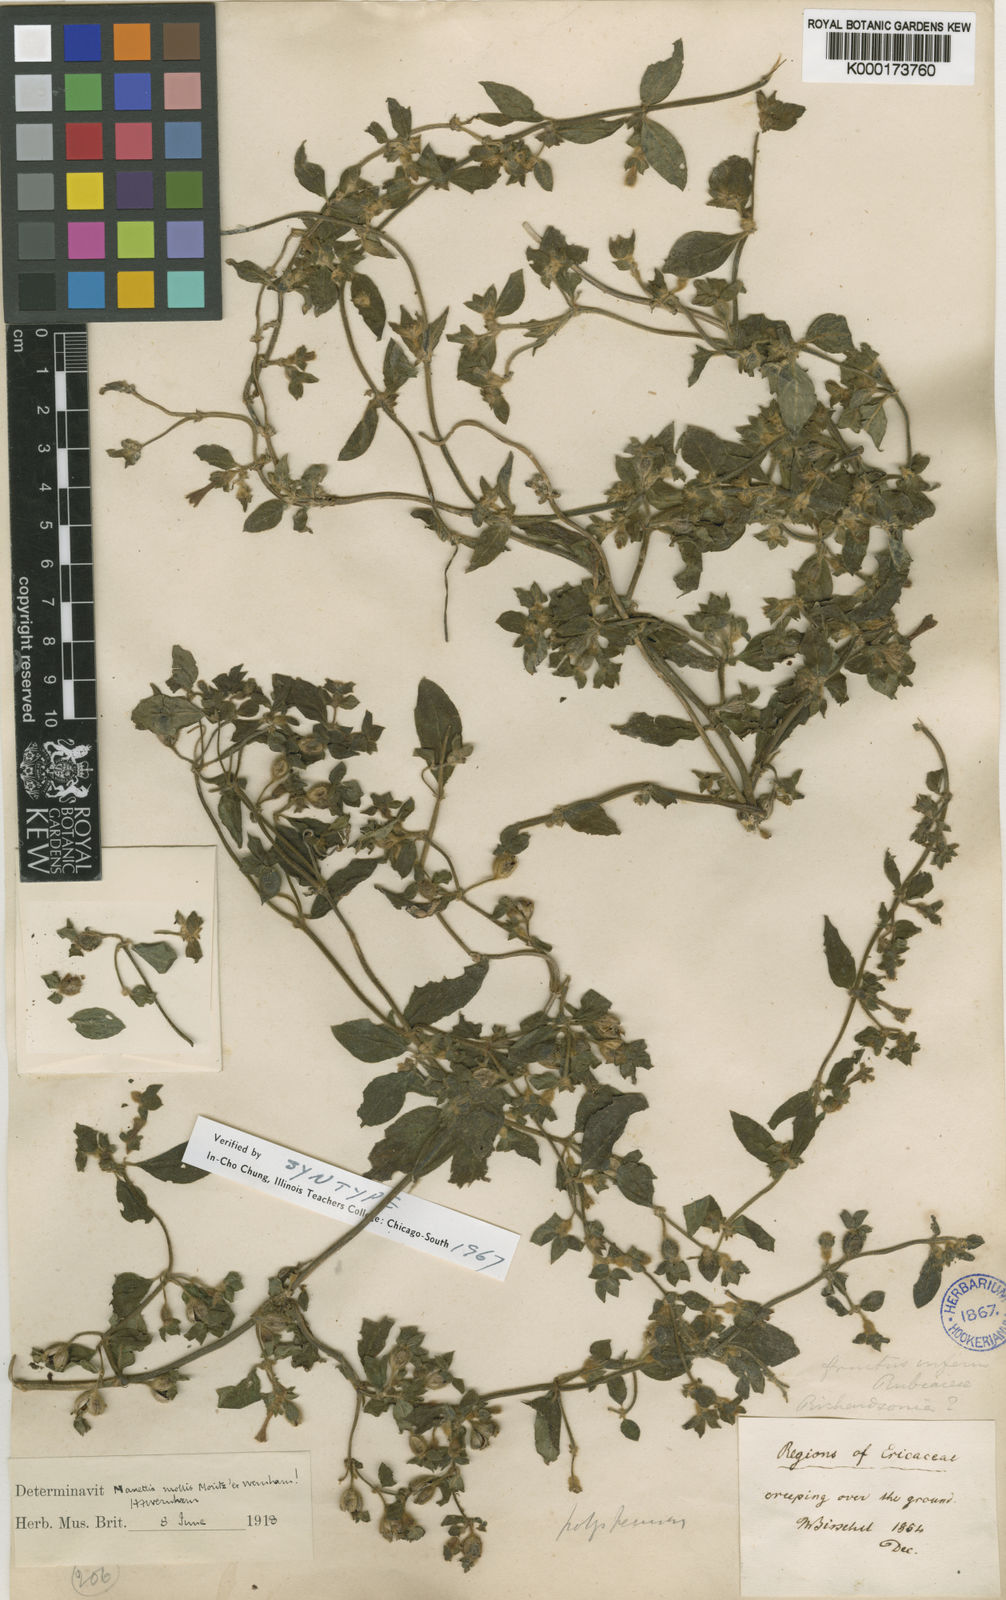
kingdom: Plantae
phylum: Tracheophyta
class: Magnoliopsida
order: Gentianales
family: Rubiaceae
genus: Manettia
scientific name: Manettia mollis
